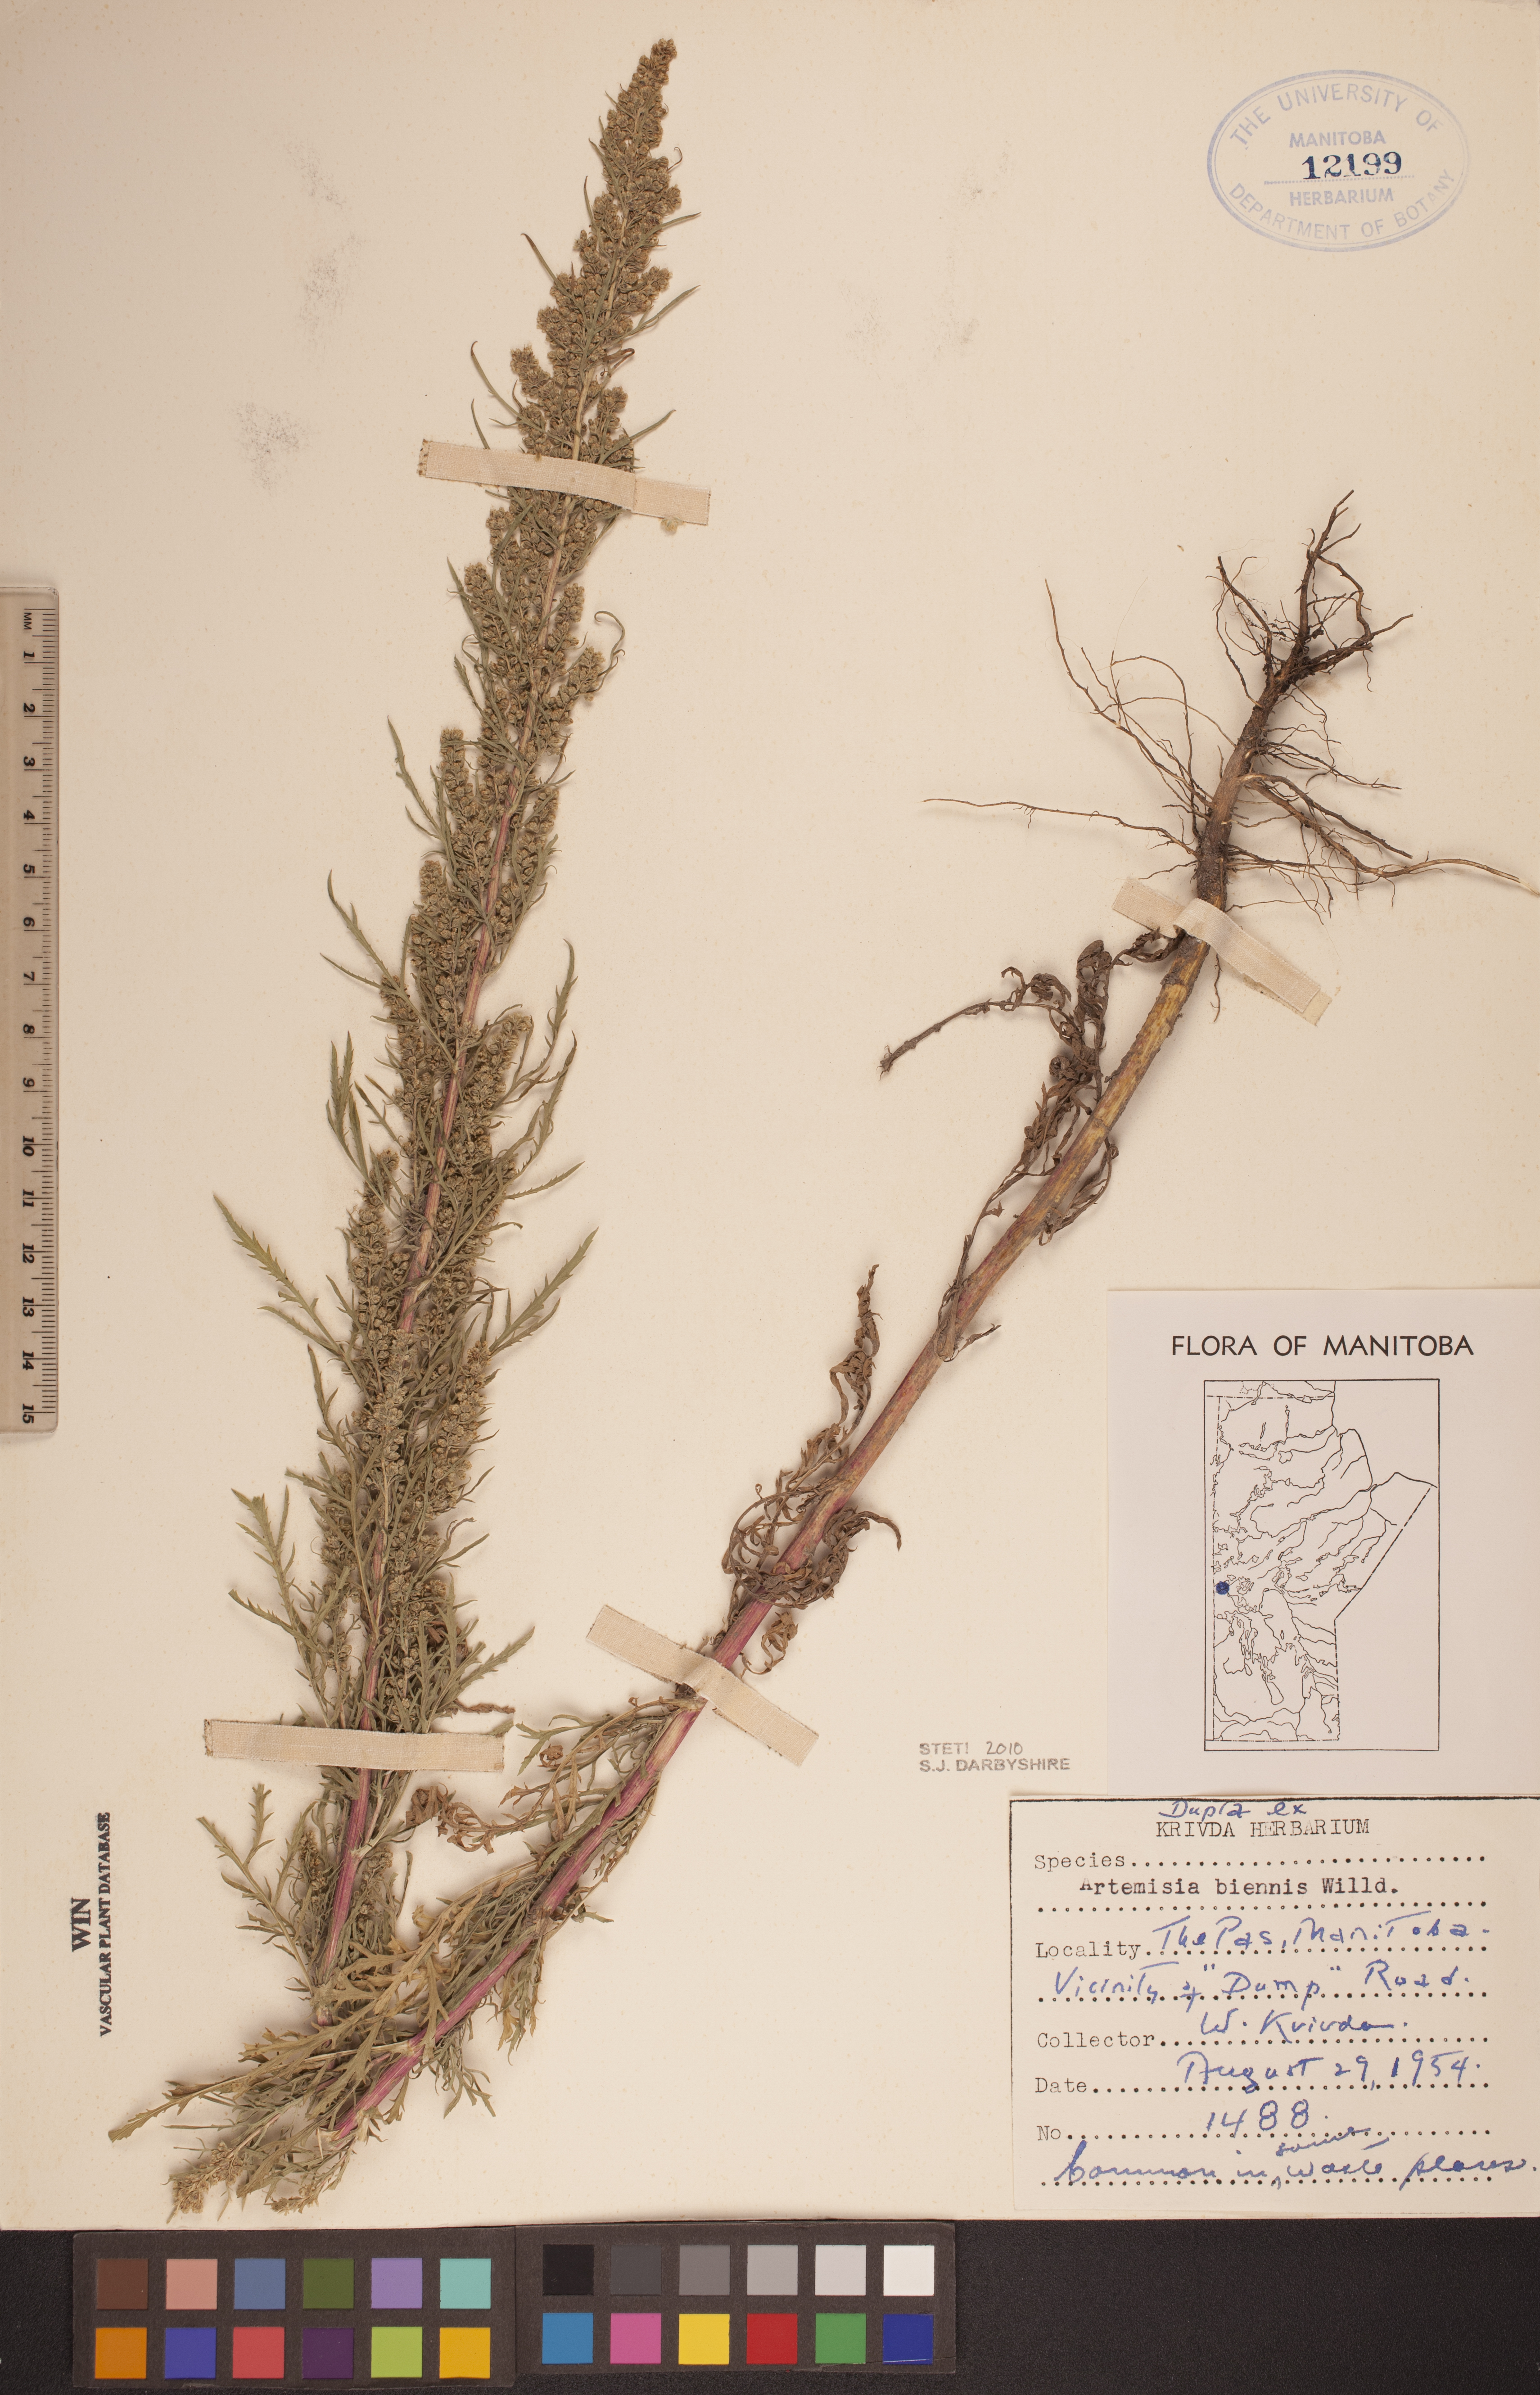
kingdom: Plantae
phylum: Tracheophyta
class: Magnoliopsida
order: Asterales
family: Asteraceae
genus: Artemisia
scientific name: Artemisia biennis
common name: Biennial wormwood
